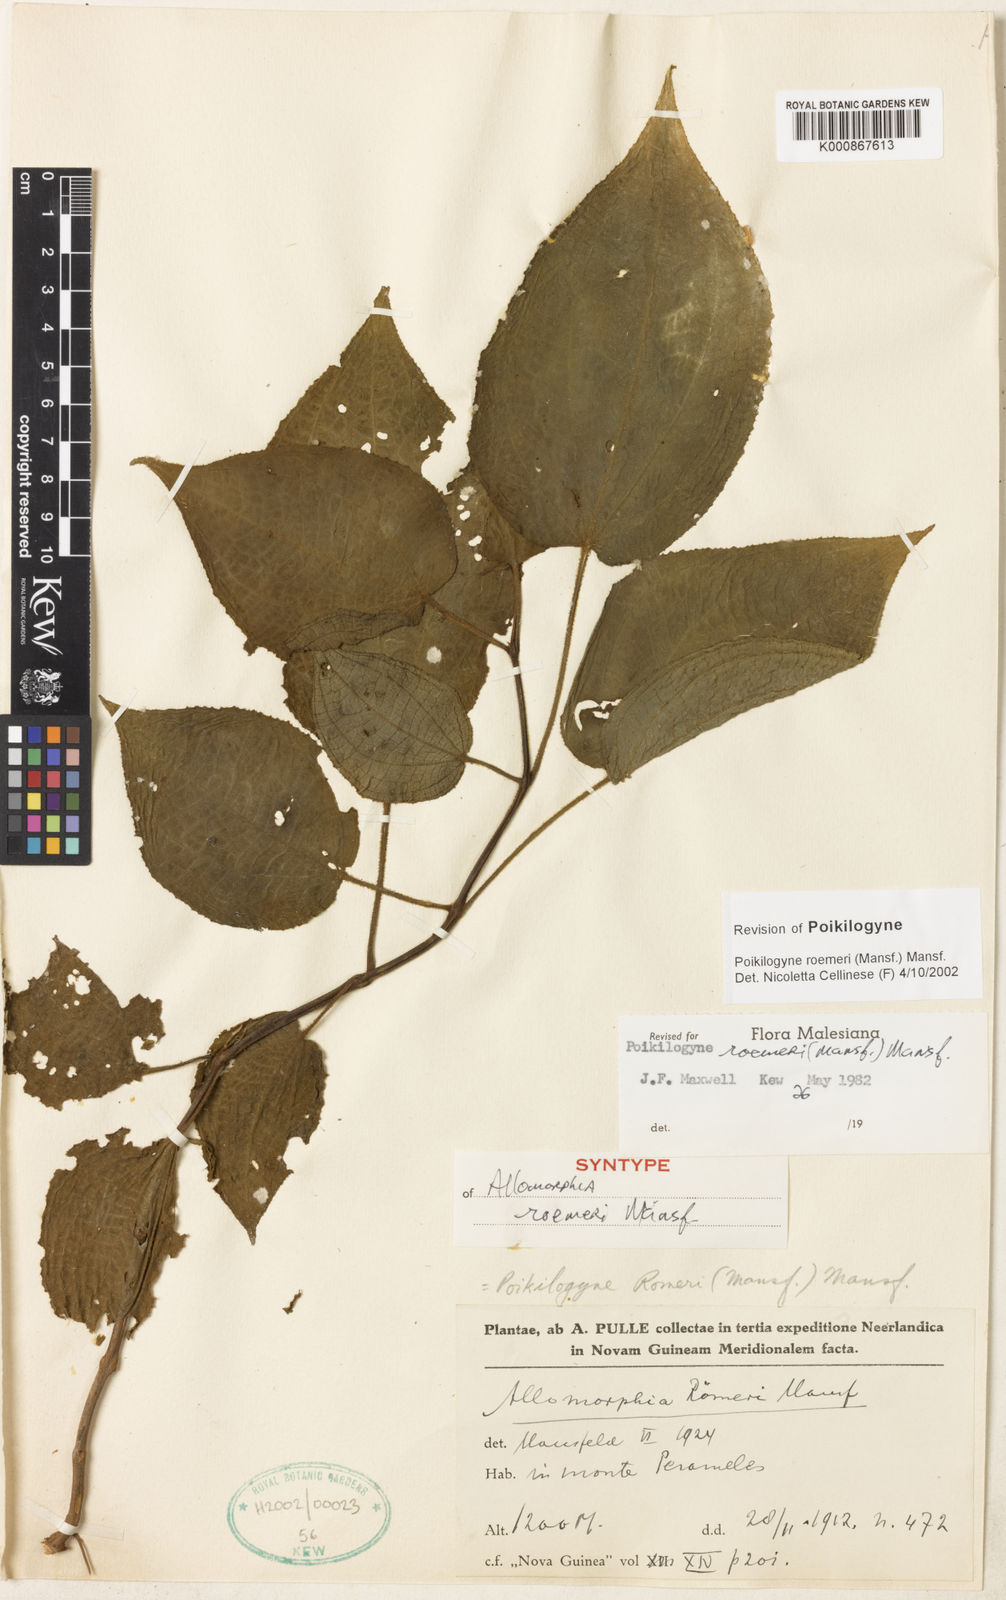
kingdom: Plantae
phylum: Tracheophyta
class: Magnoliopsida
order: Myrtales
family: Melastomataceae
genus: Poikilogyne
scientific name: Poikilogyne roemeri
